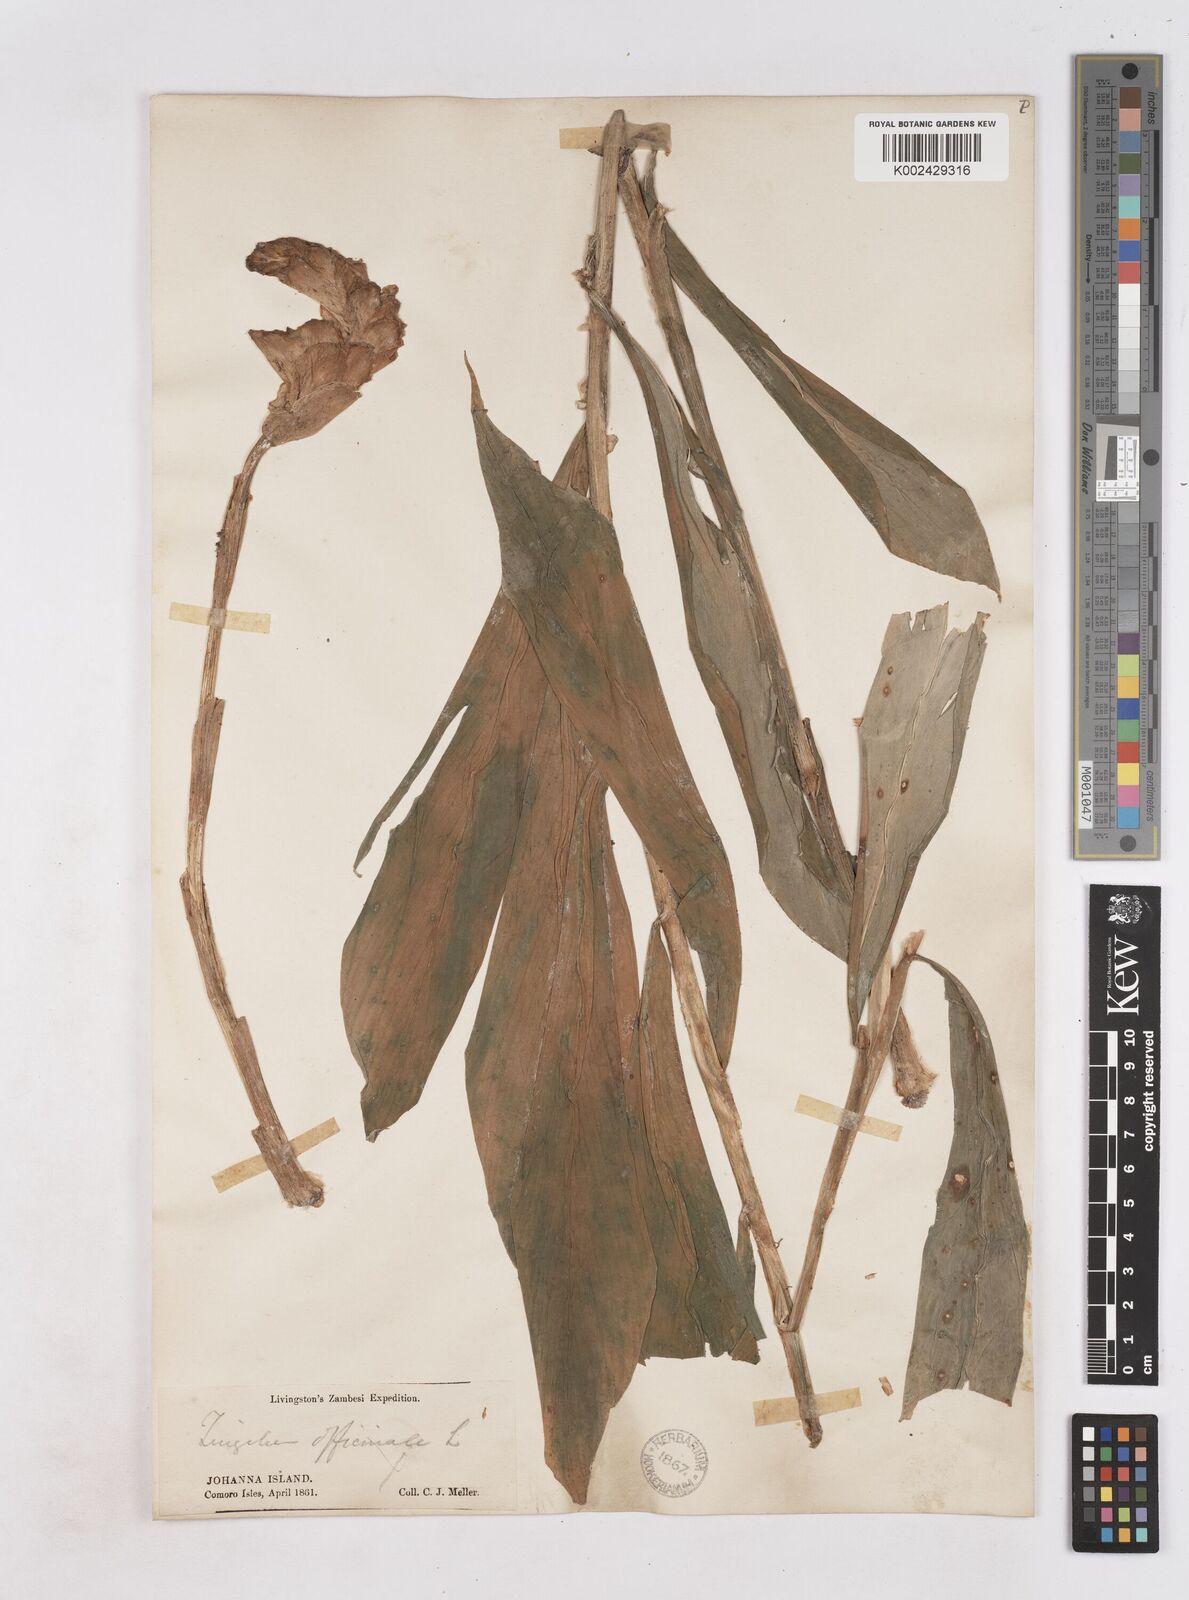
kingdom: Plantae
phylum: Tracheophyta
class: Liliopsida
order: Zingiberales
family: Zingiberaceae
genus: Zingiber
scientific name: Zingiber zerumbet
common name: Bitter ginger
